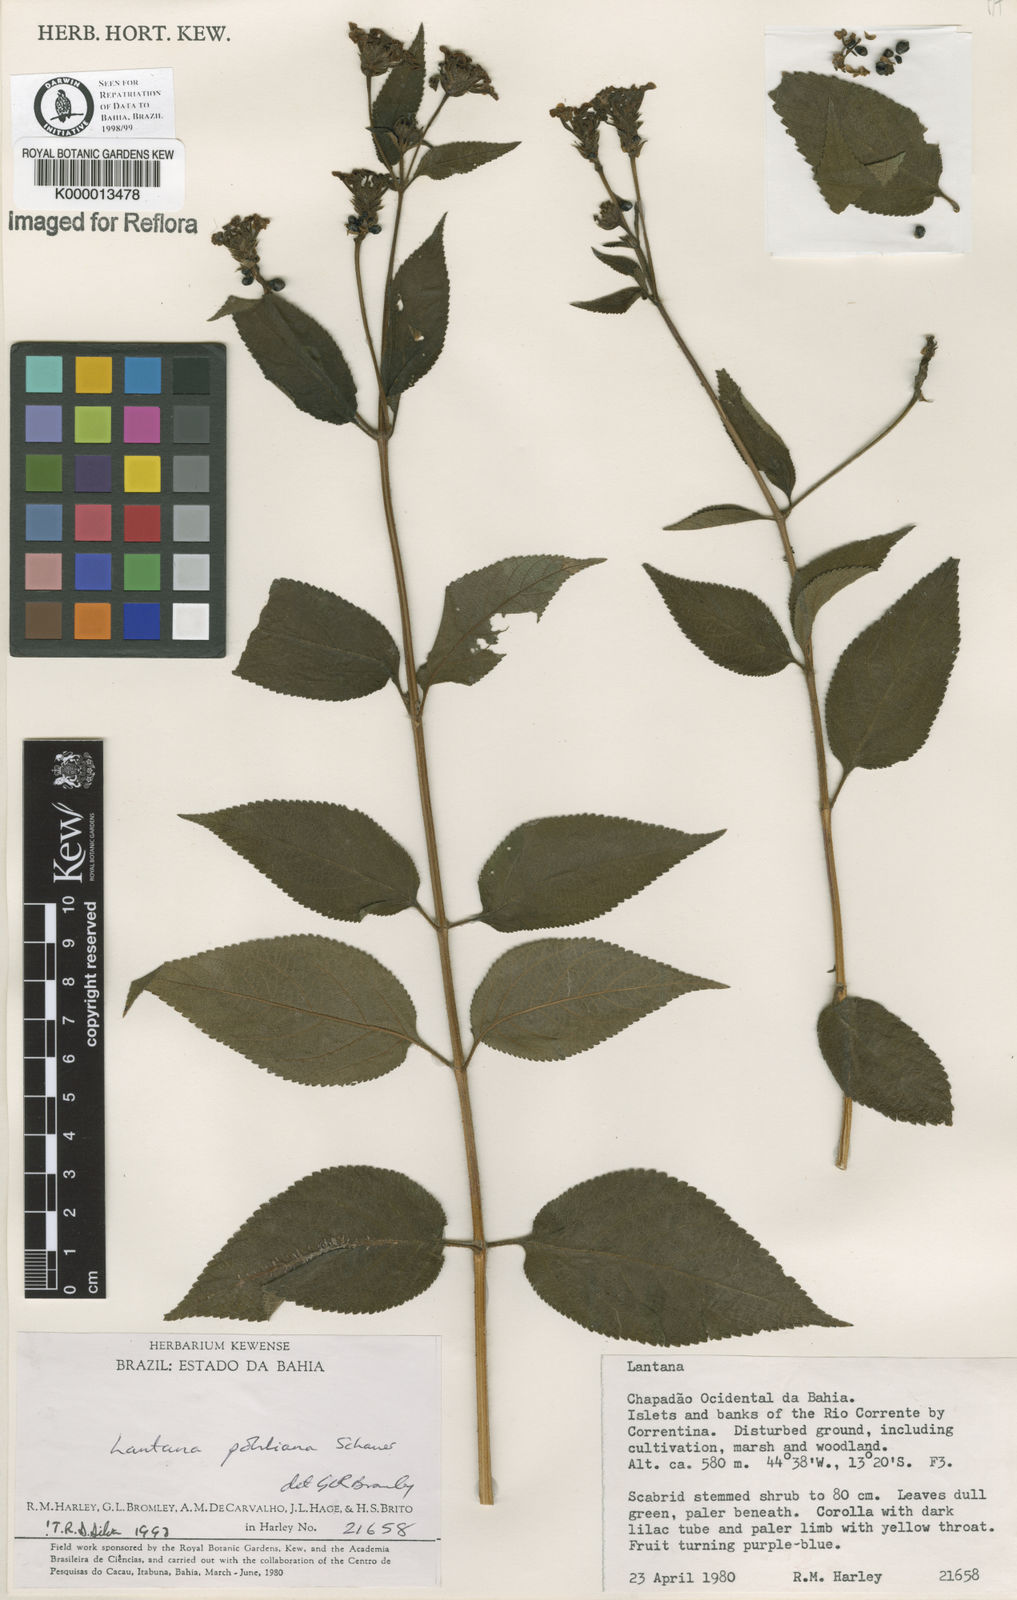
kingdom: Plantae
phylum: Tracheophyta
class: Magnoliopsida
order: Lamiales
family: Verbenaceae
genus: Lantana
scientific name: Lantana pohliana
